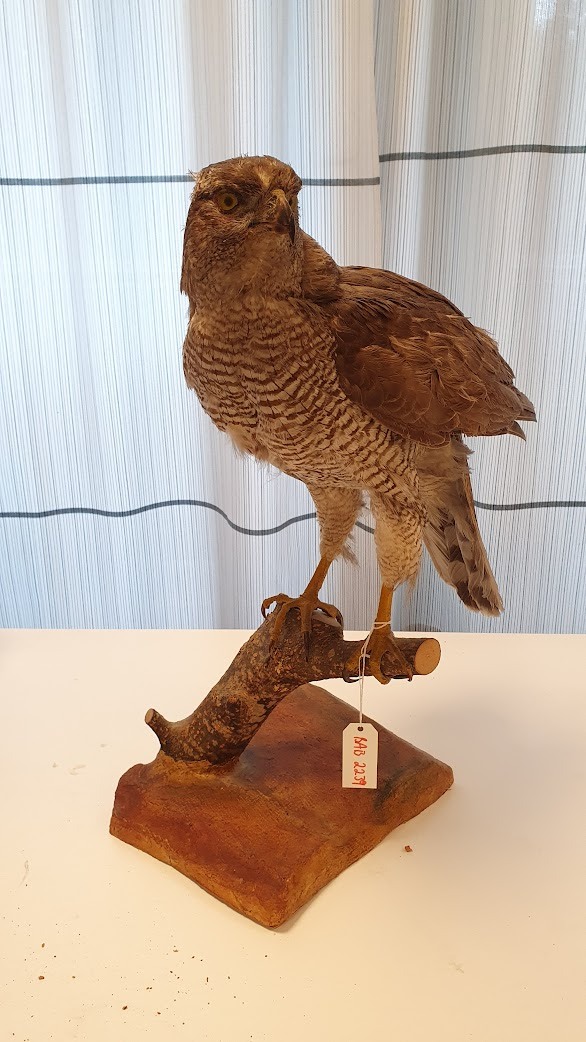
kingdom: Animalia
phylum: Chordata
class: Aves
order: Accipitriformes
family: Accipitridae
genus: Accipiter
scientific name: Accipiter gentilis
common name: Northern goshawk
